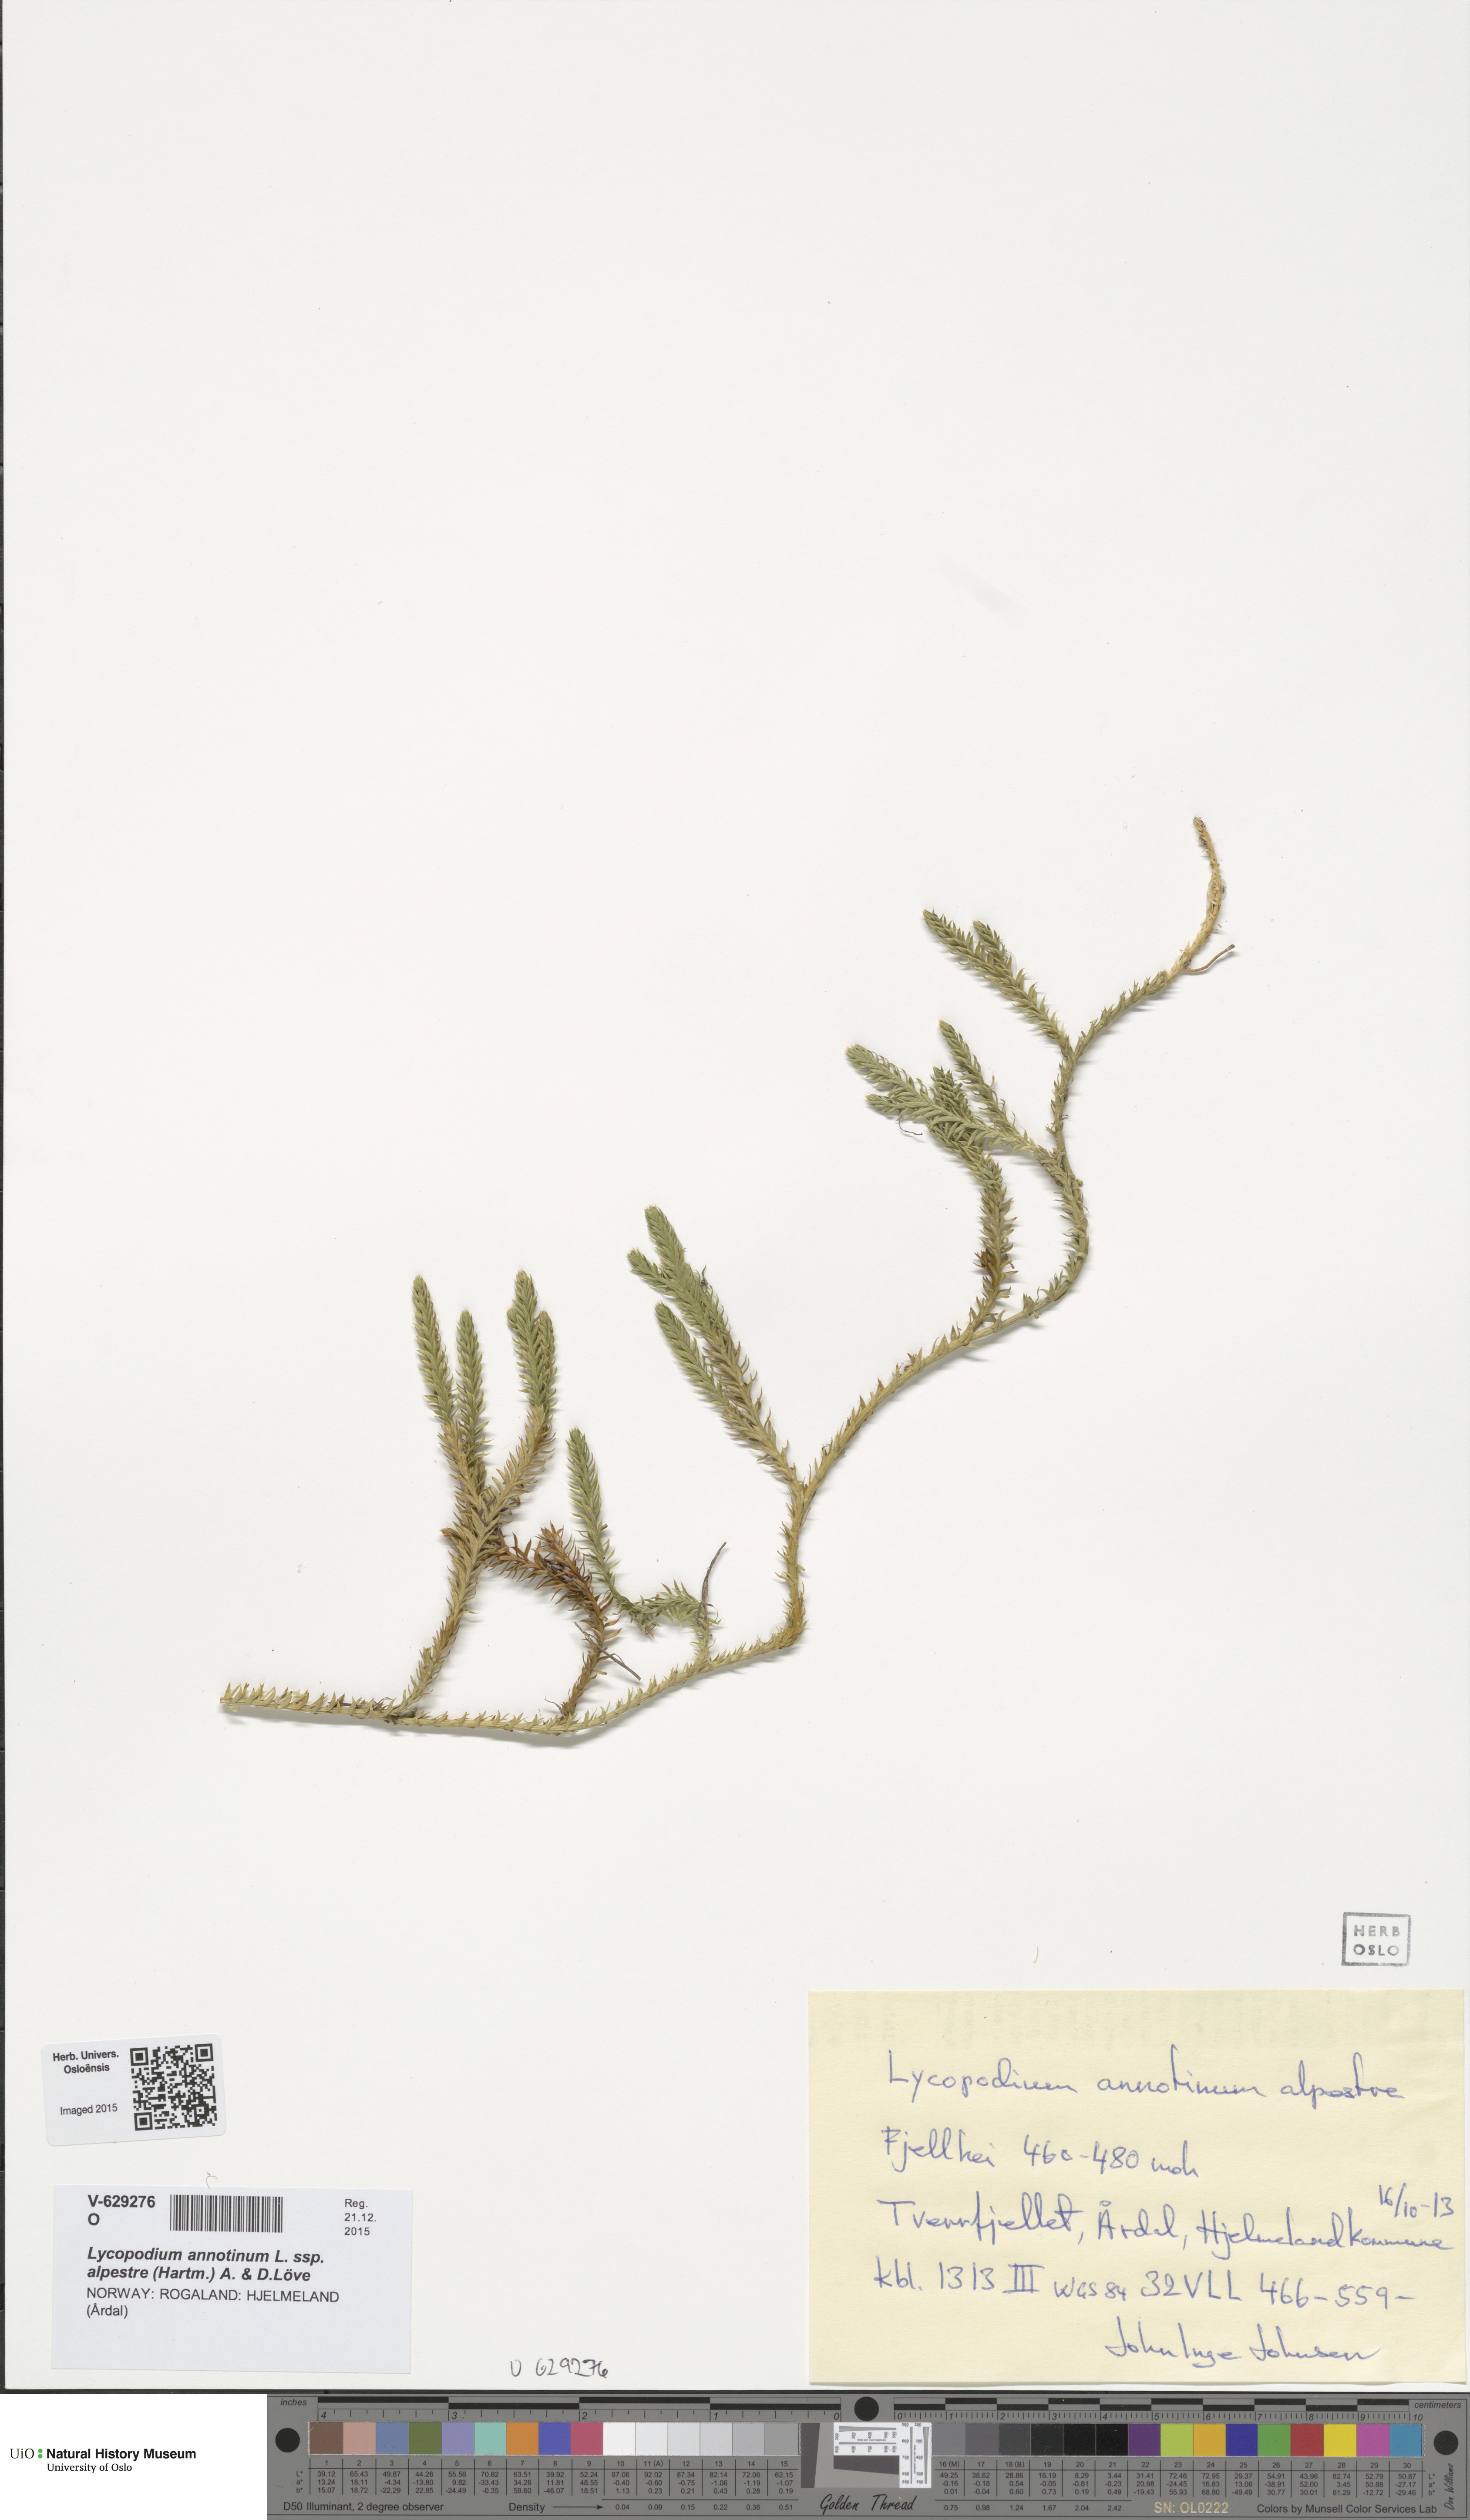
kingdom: Plantae
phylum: Tracheophyta
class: Lycopodiopsida
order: Lycopodiales
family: Lycopodiaceae
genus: Spinulum
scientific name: Spinulum annotinum
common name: Interrupted club-moss
